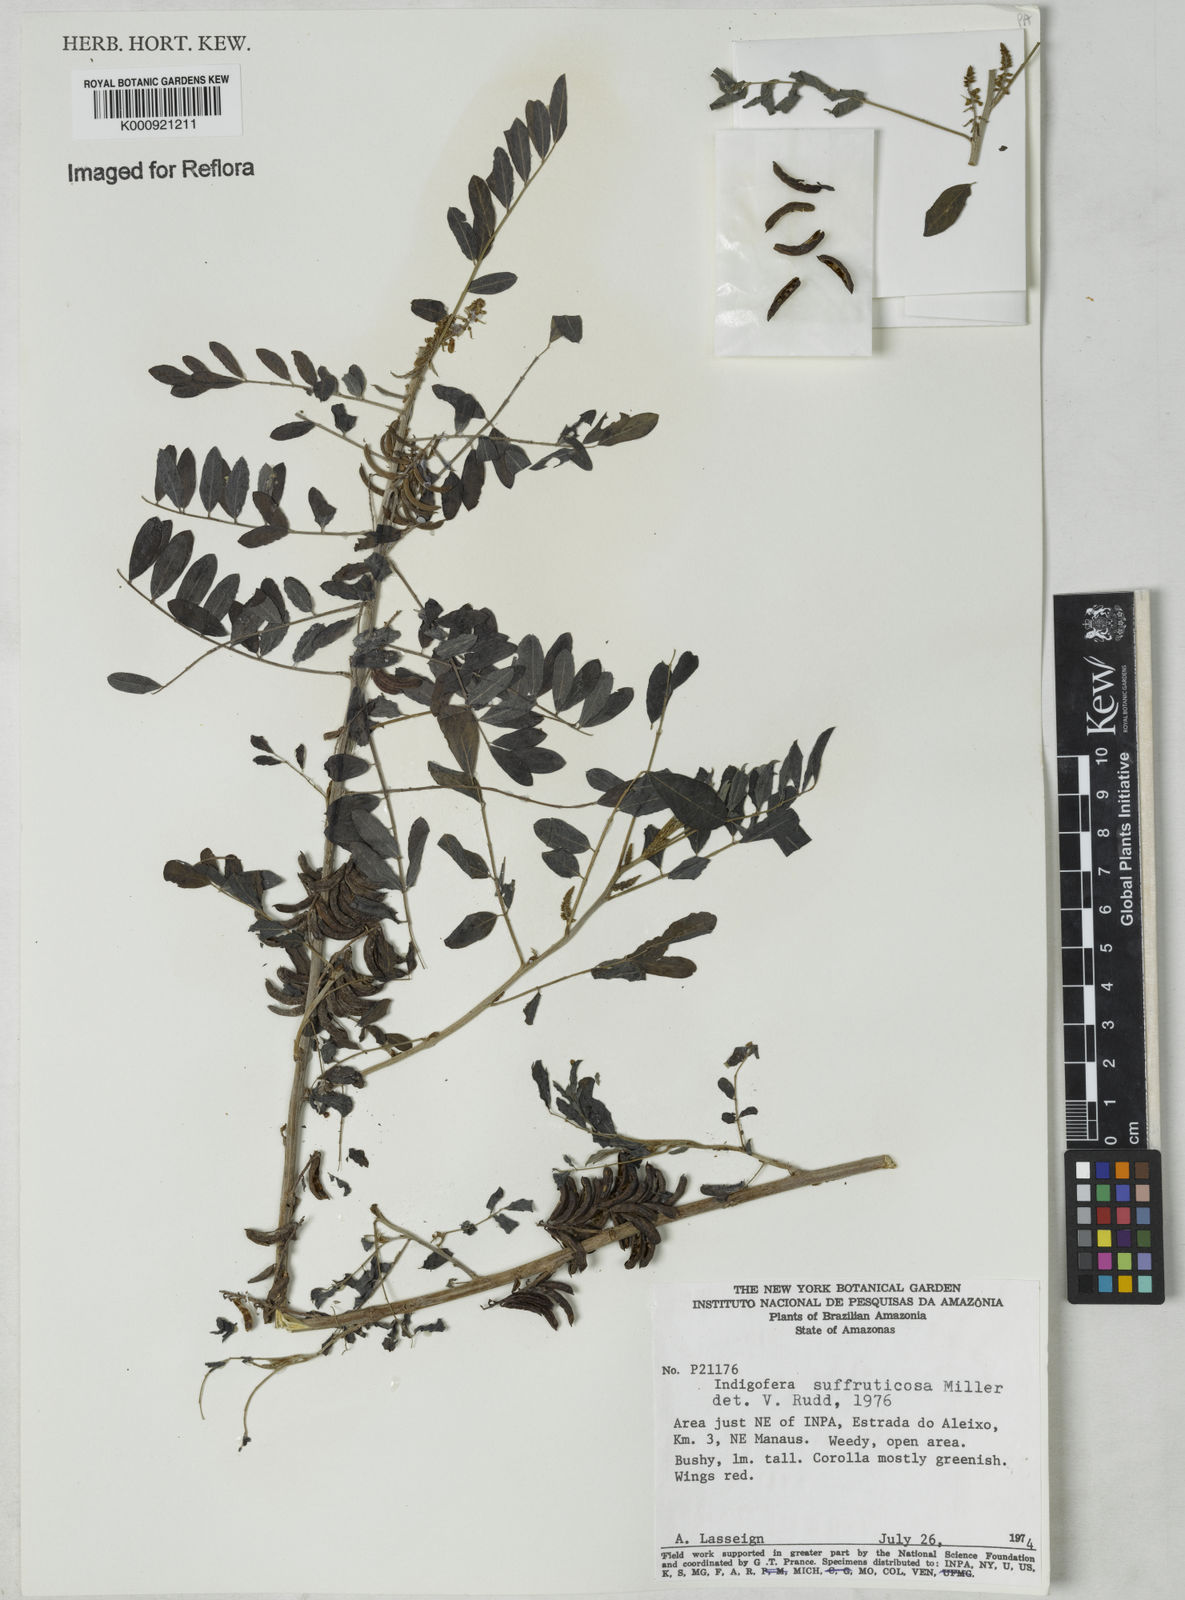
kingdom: Plantae
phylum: Tracheophyta
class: Magnoliopsida
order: Fabales
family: Fabaceae
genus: Indigofera
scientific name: Indigofera suffruticosa
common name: Anil de pasto
